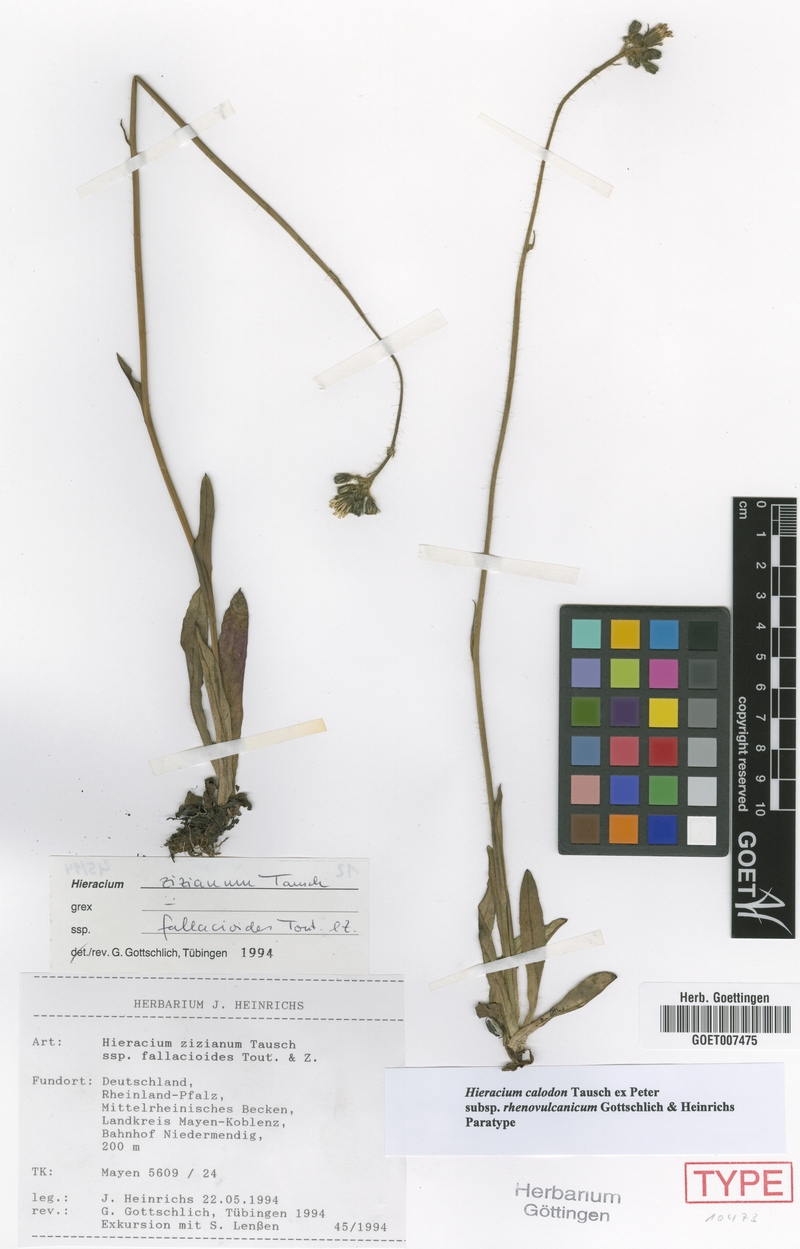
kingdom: Plantae
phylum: Tracheophyta
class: Magnoliopsida
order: Asterales
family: Asteraceae
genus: Pilosella
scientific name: Pilosella calodon
